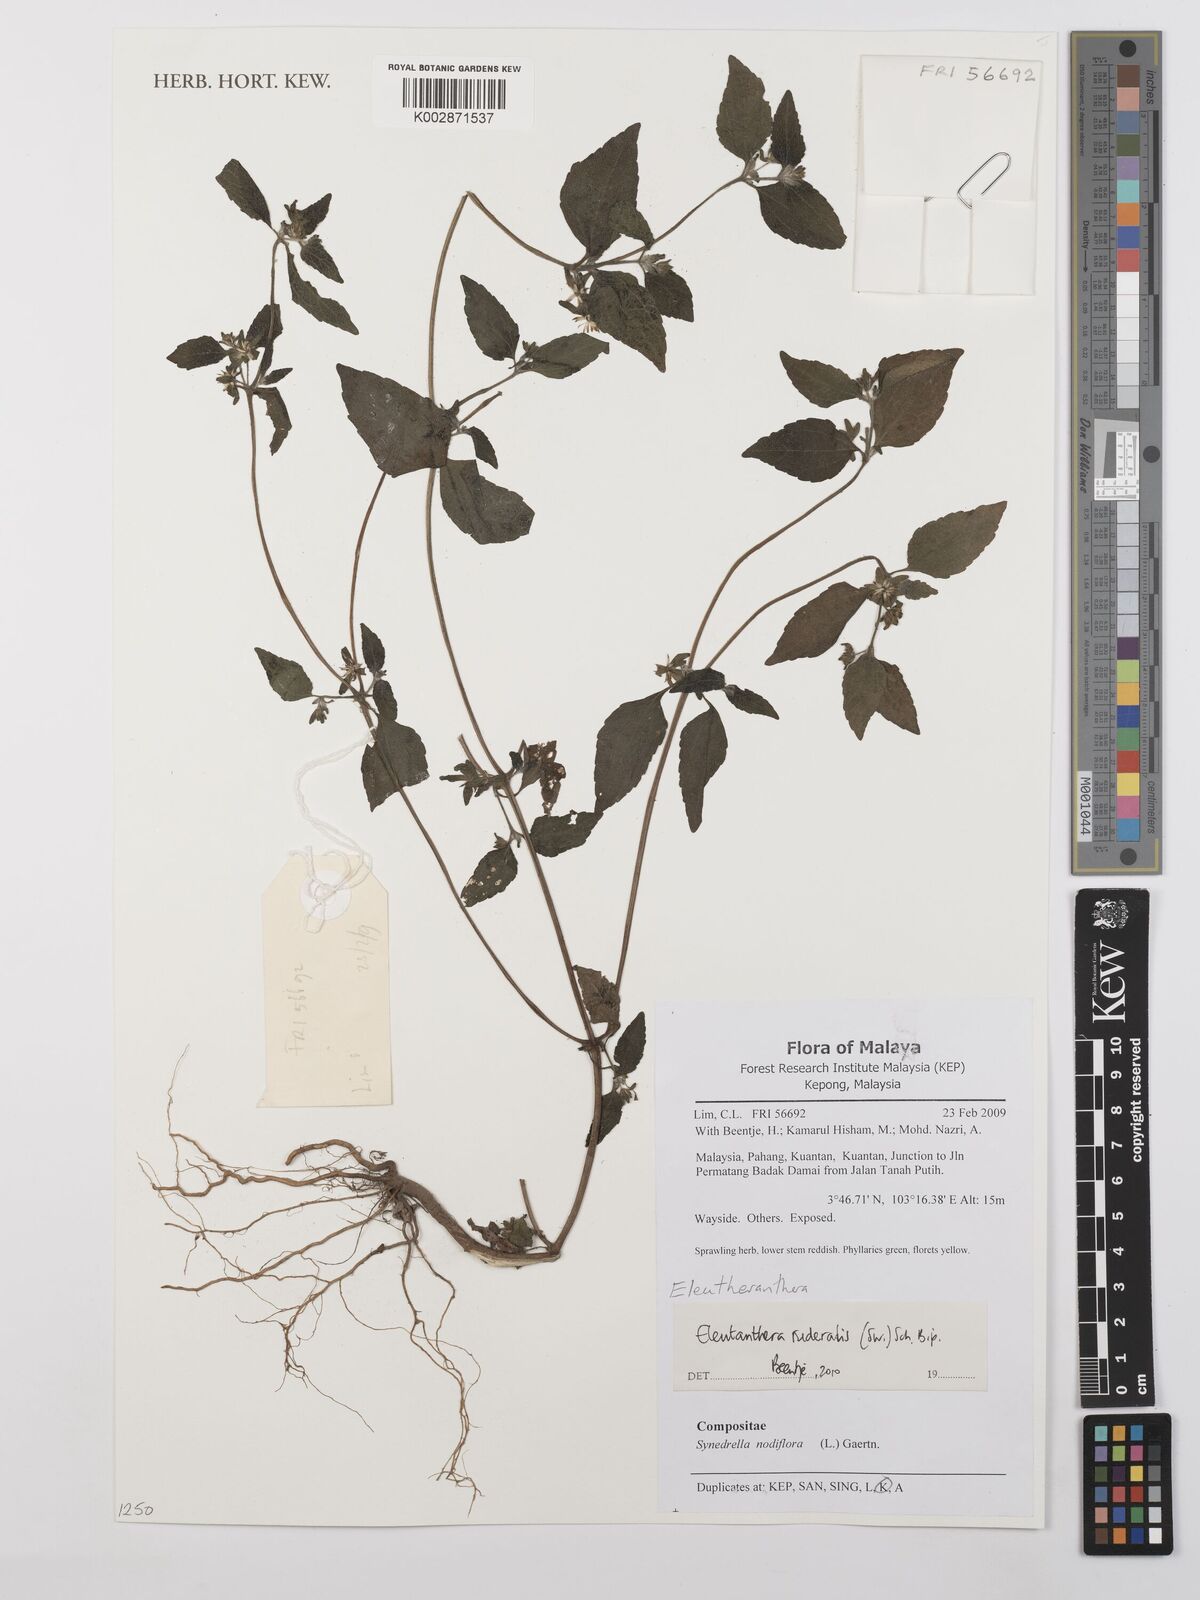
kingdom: Plantae
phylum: Tracheophyta
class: Magnoliopsida
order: Asterales
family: Asteraceae
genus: Eleutheranthera
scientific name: Eleutheranthera ruderalis
